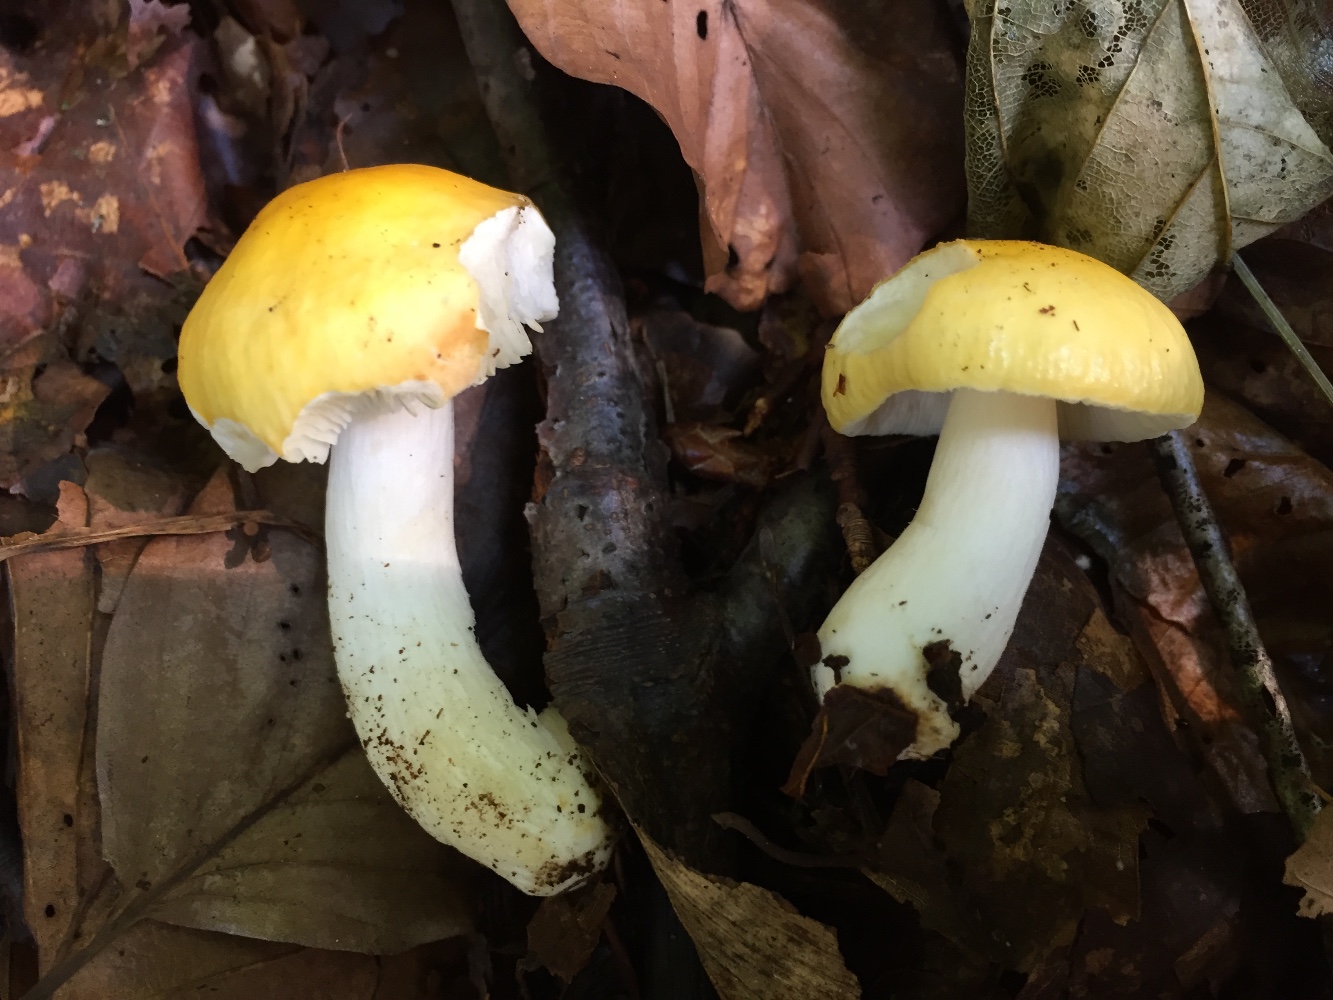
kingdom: Fungi
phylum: Basidiomycota
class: Agaricomycetes
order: Russulales
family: Russulaceae
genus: Russula
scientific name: Russula solaris
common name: sol-skørhat
